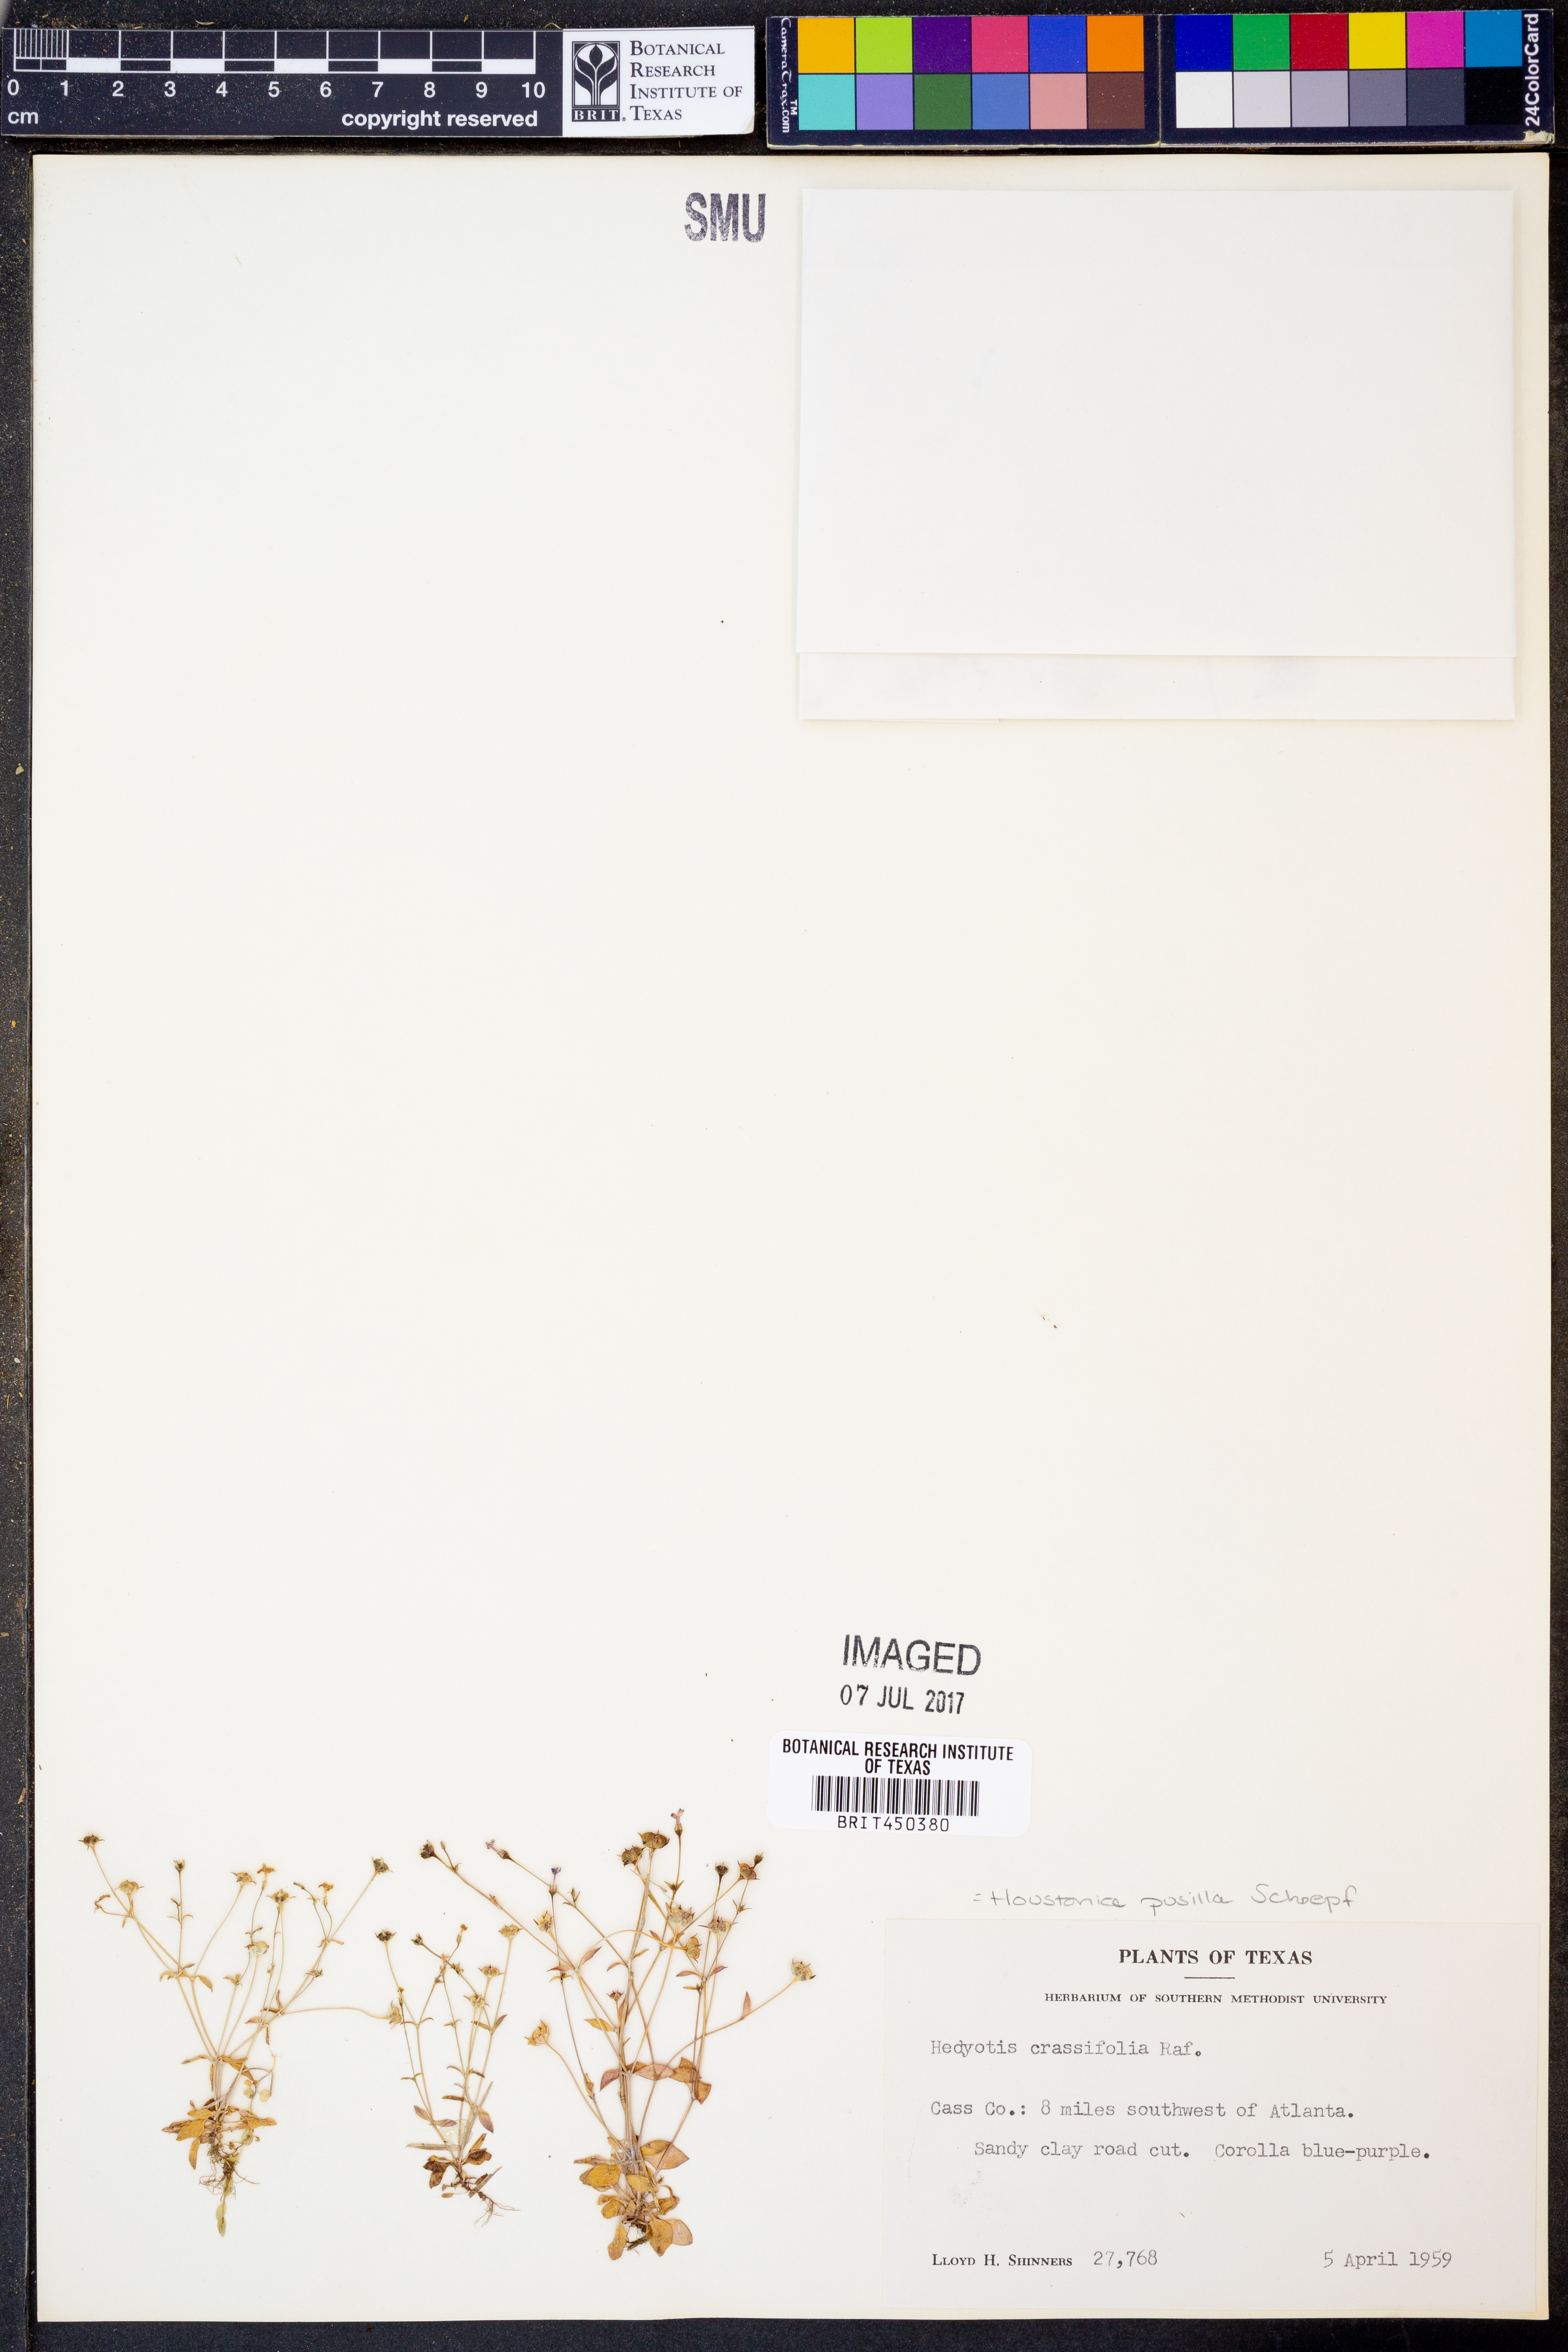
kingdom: Plantae
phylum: Tracheophyta
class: Magnoliopsida
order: Gentianales
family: Rubiaceae
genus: Houstonia
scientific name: Houstonia pusilla
